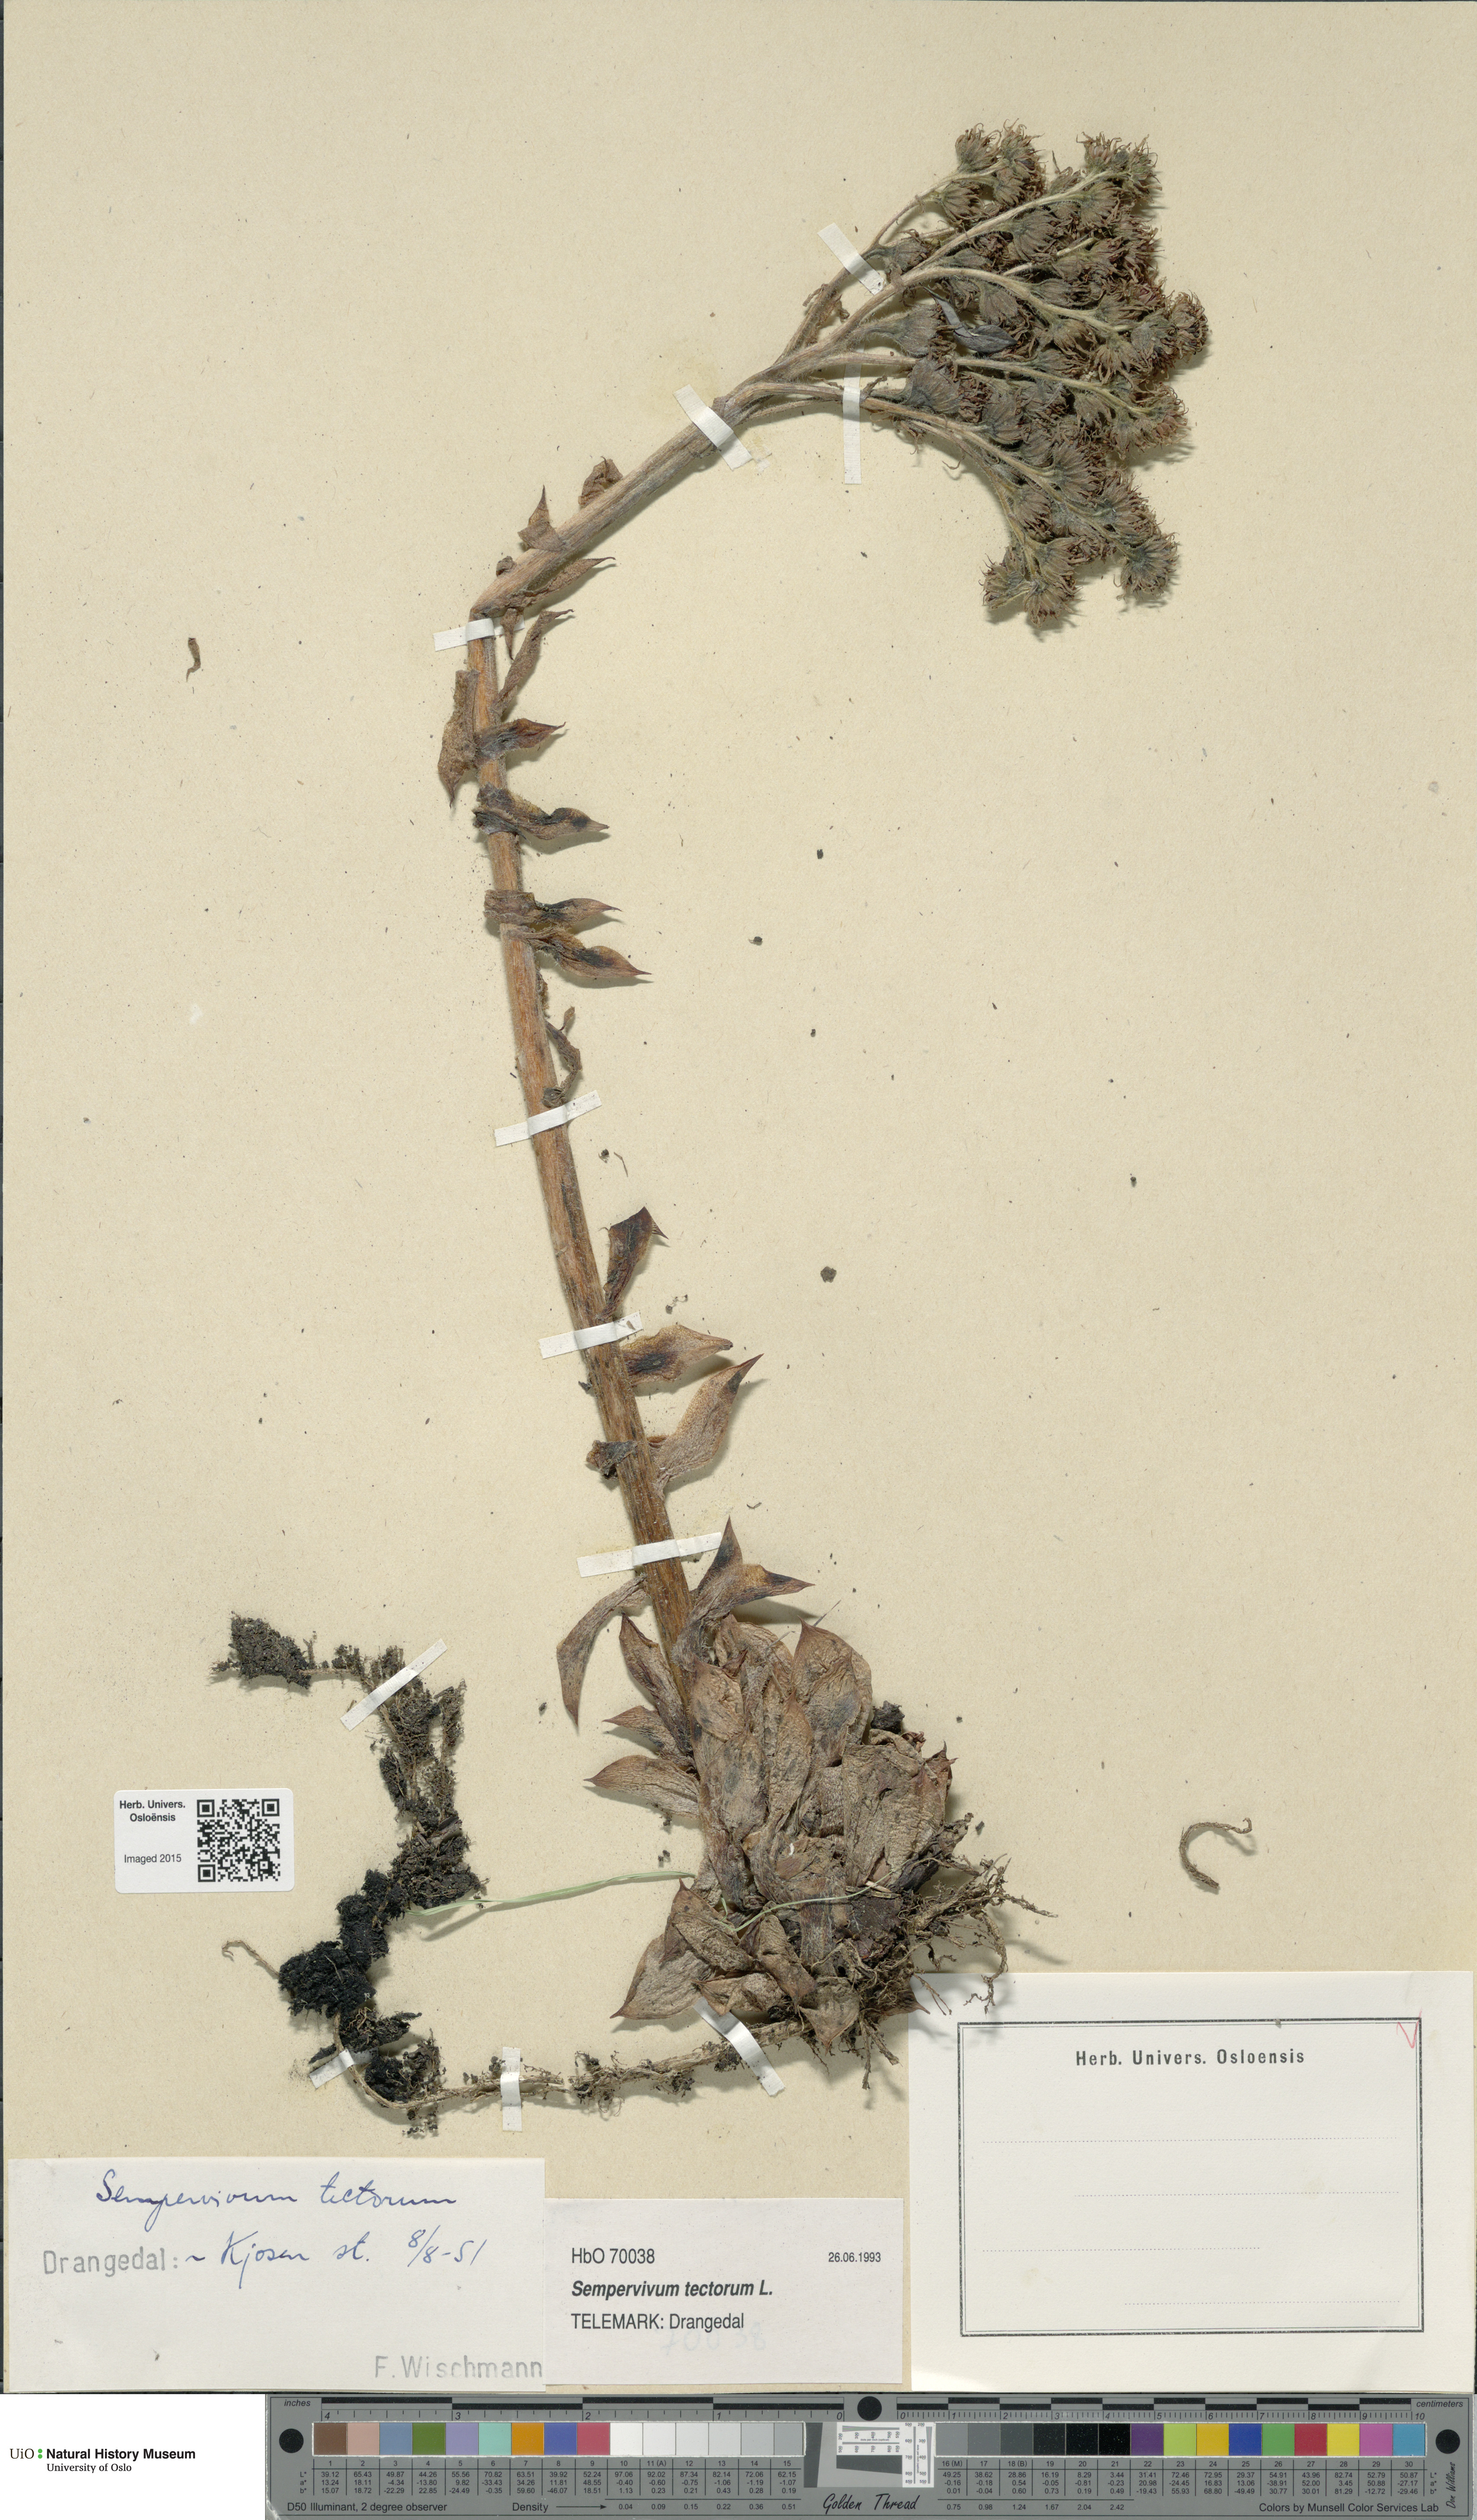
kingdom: Plantae
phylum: Tracheophyta
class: Magnoliopsida
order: Saxifragales
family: Crassulaceae
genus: Sempervivum
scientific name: Sempervivum tectorum
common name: House-leek
